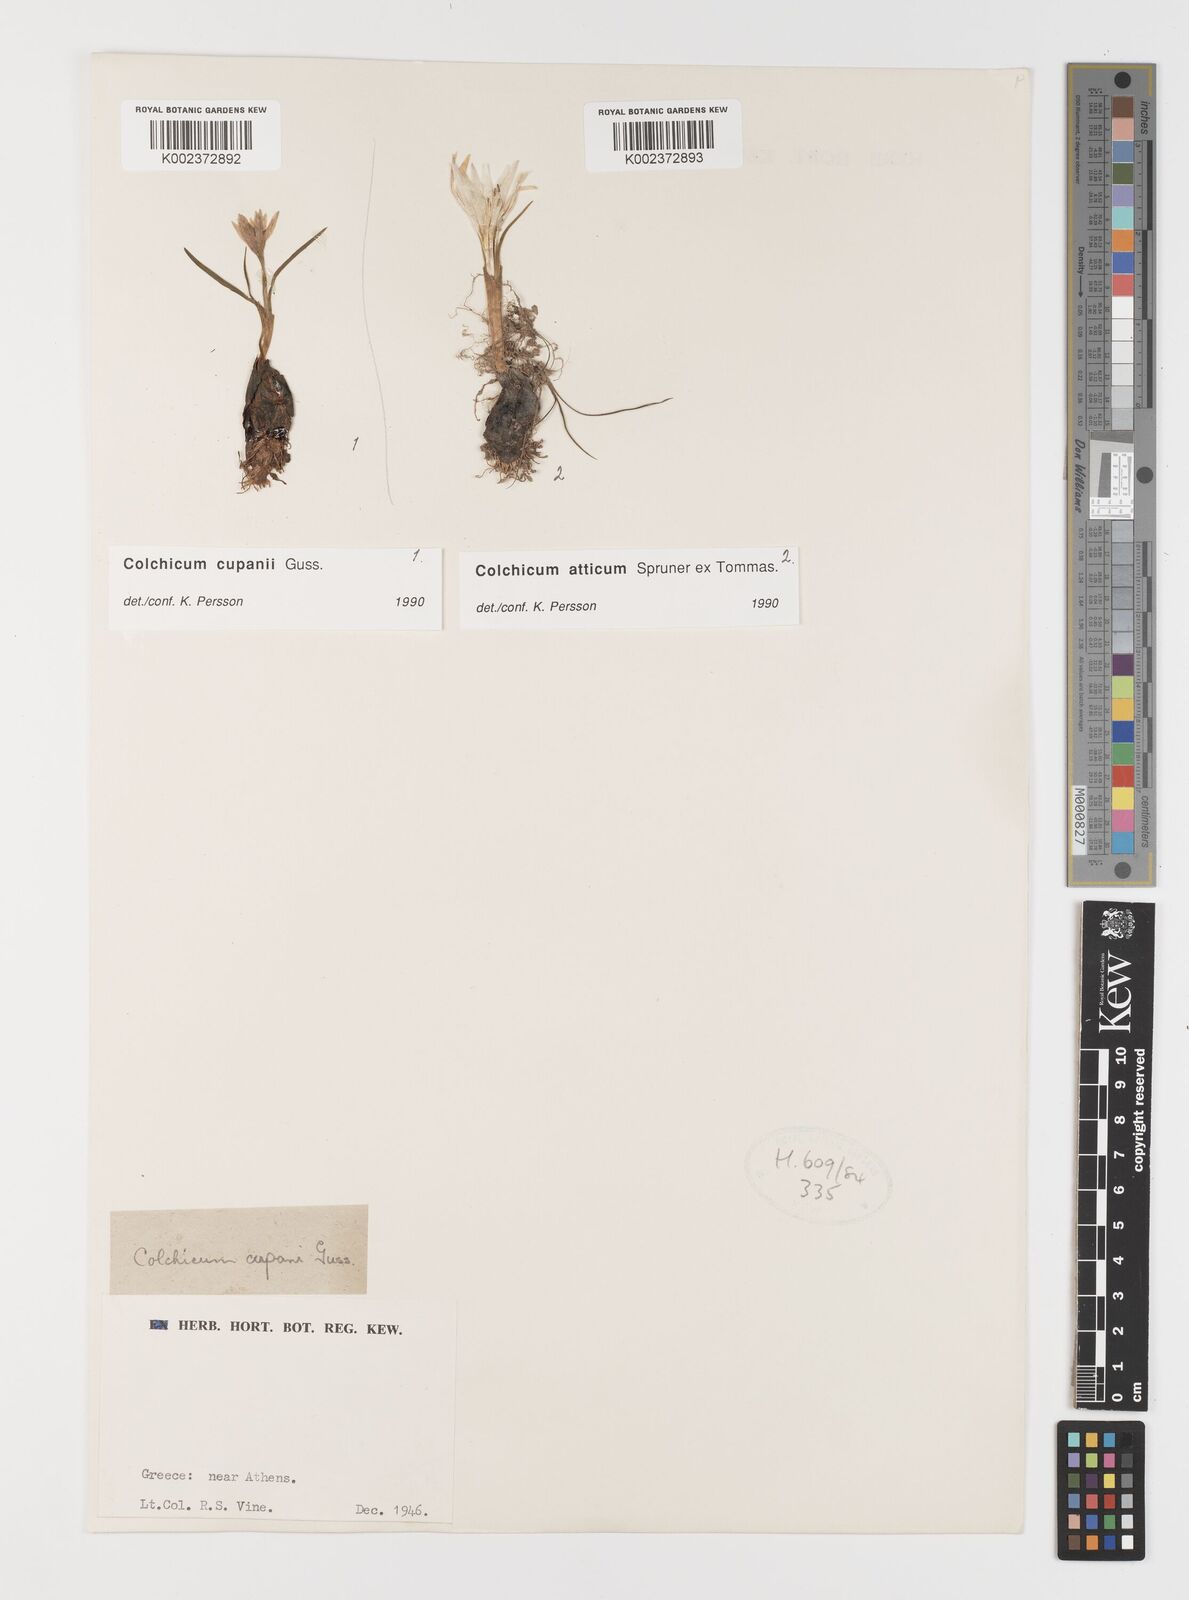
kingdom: Plantae
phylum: Tracheophyta
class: Liliopsida
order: Liliales
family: Colchicaceae
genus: Colchicum
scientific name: Colchicum cupanii
